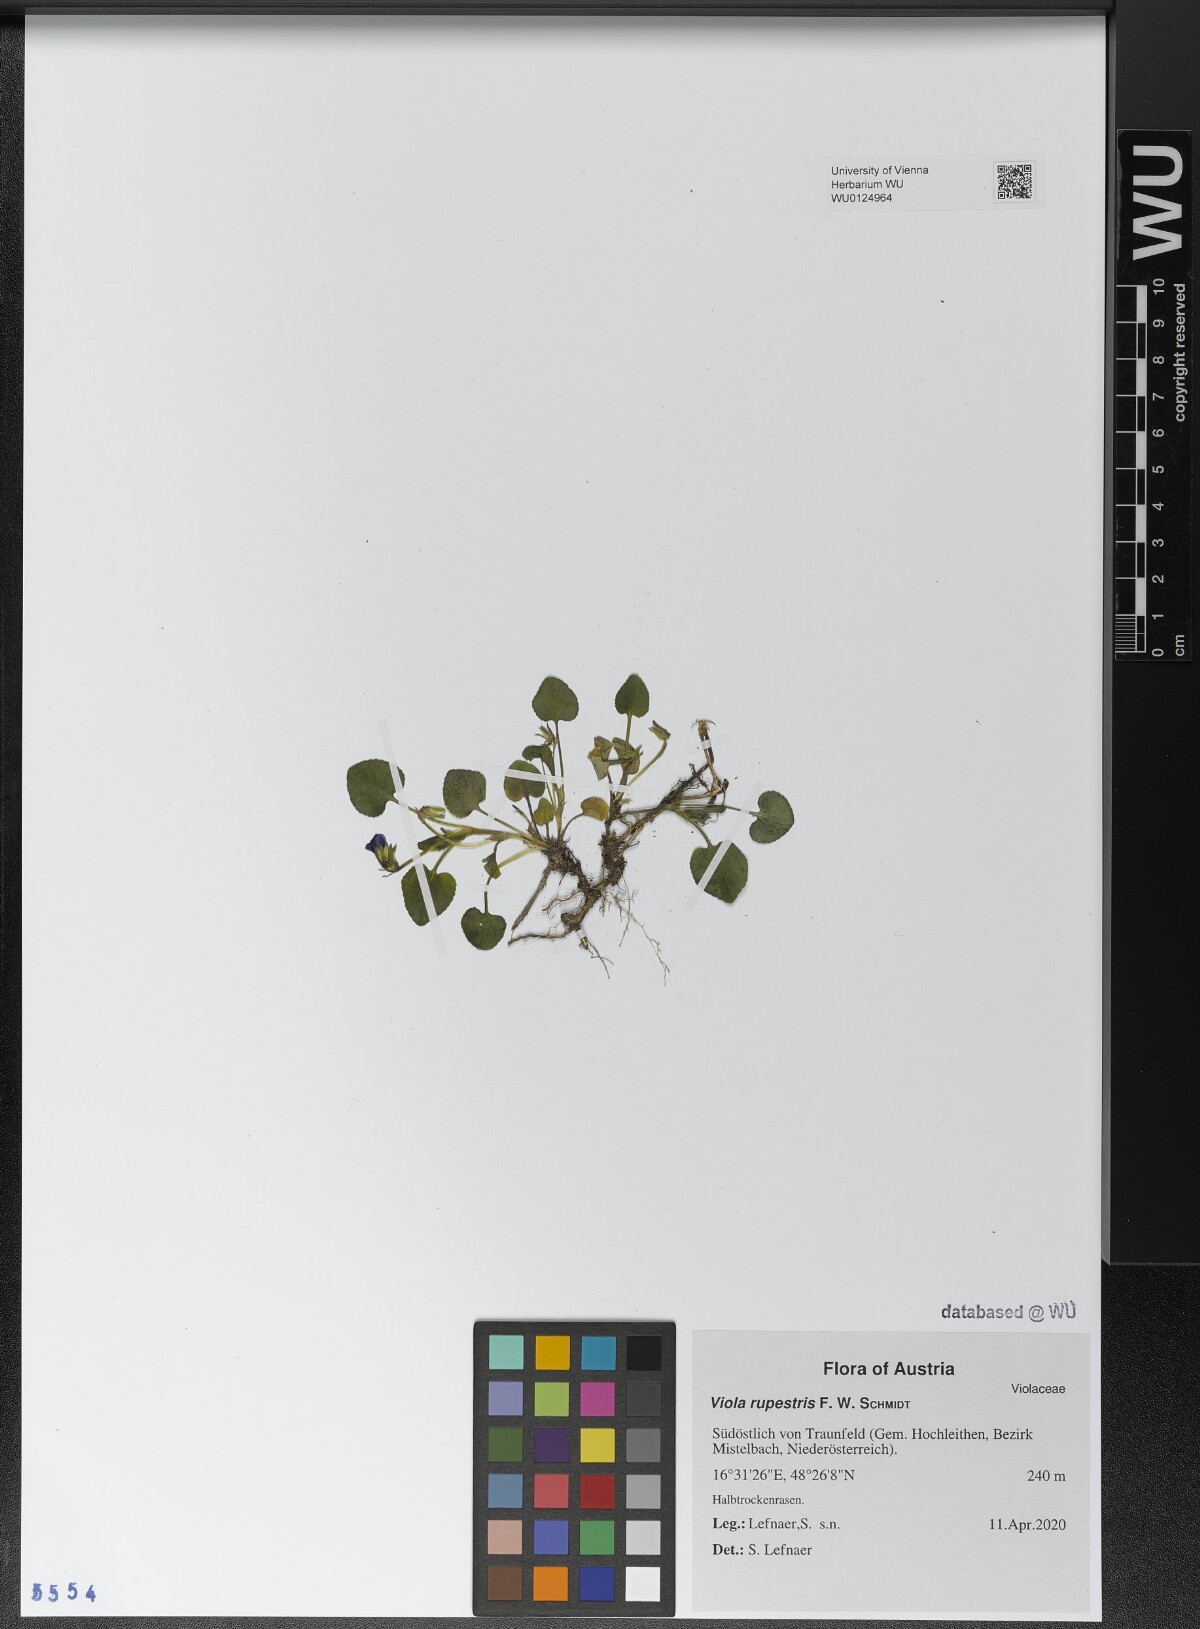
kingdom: Plantae
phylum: Tracheophyta
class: Magnoliopsida
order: Malpighiales
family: Violaceae
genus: Viola
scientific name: Viola rupestris
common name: Teesdale violet
